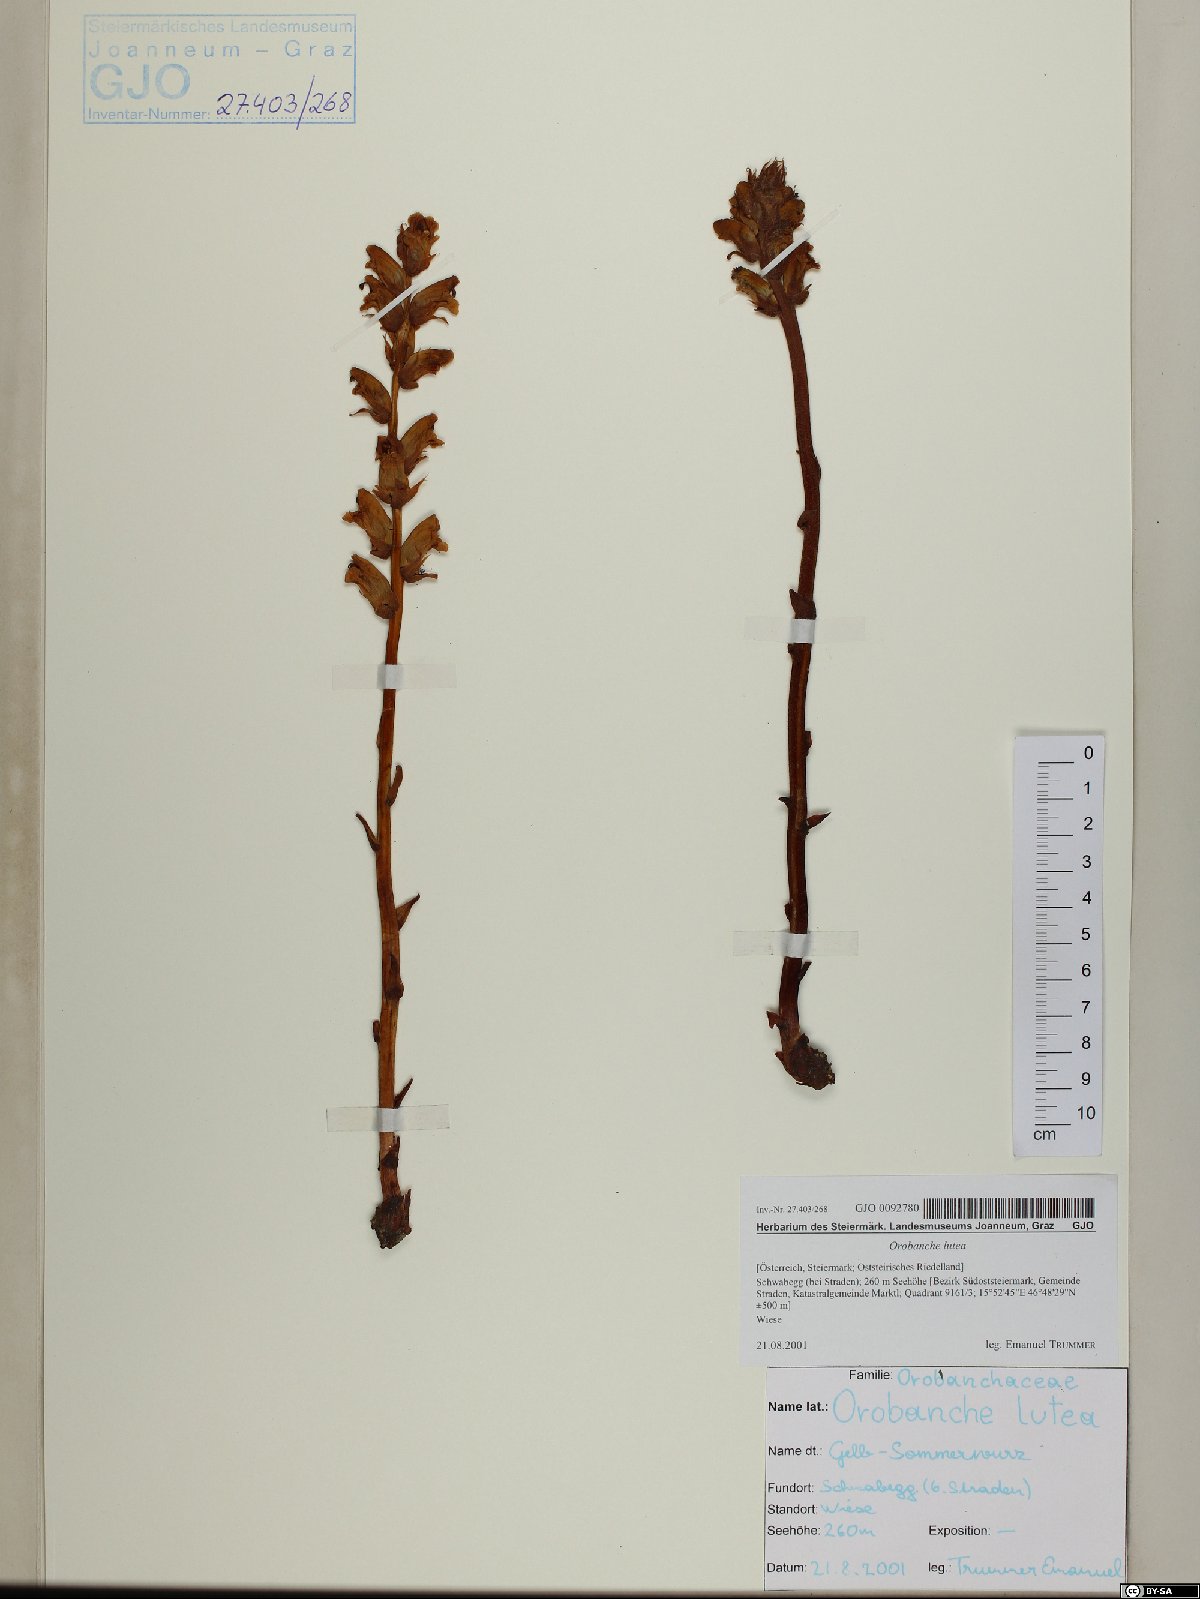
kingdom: Plantae
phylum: Tracheophyta
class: Magnoliopsida
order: Lamiales
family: Orobanchaceae
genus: Orobanche
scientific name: Orobanche lutea
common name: Yellow broomrape
